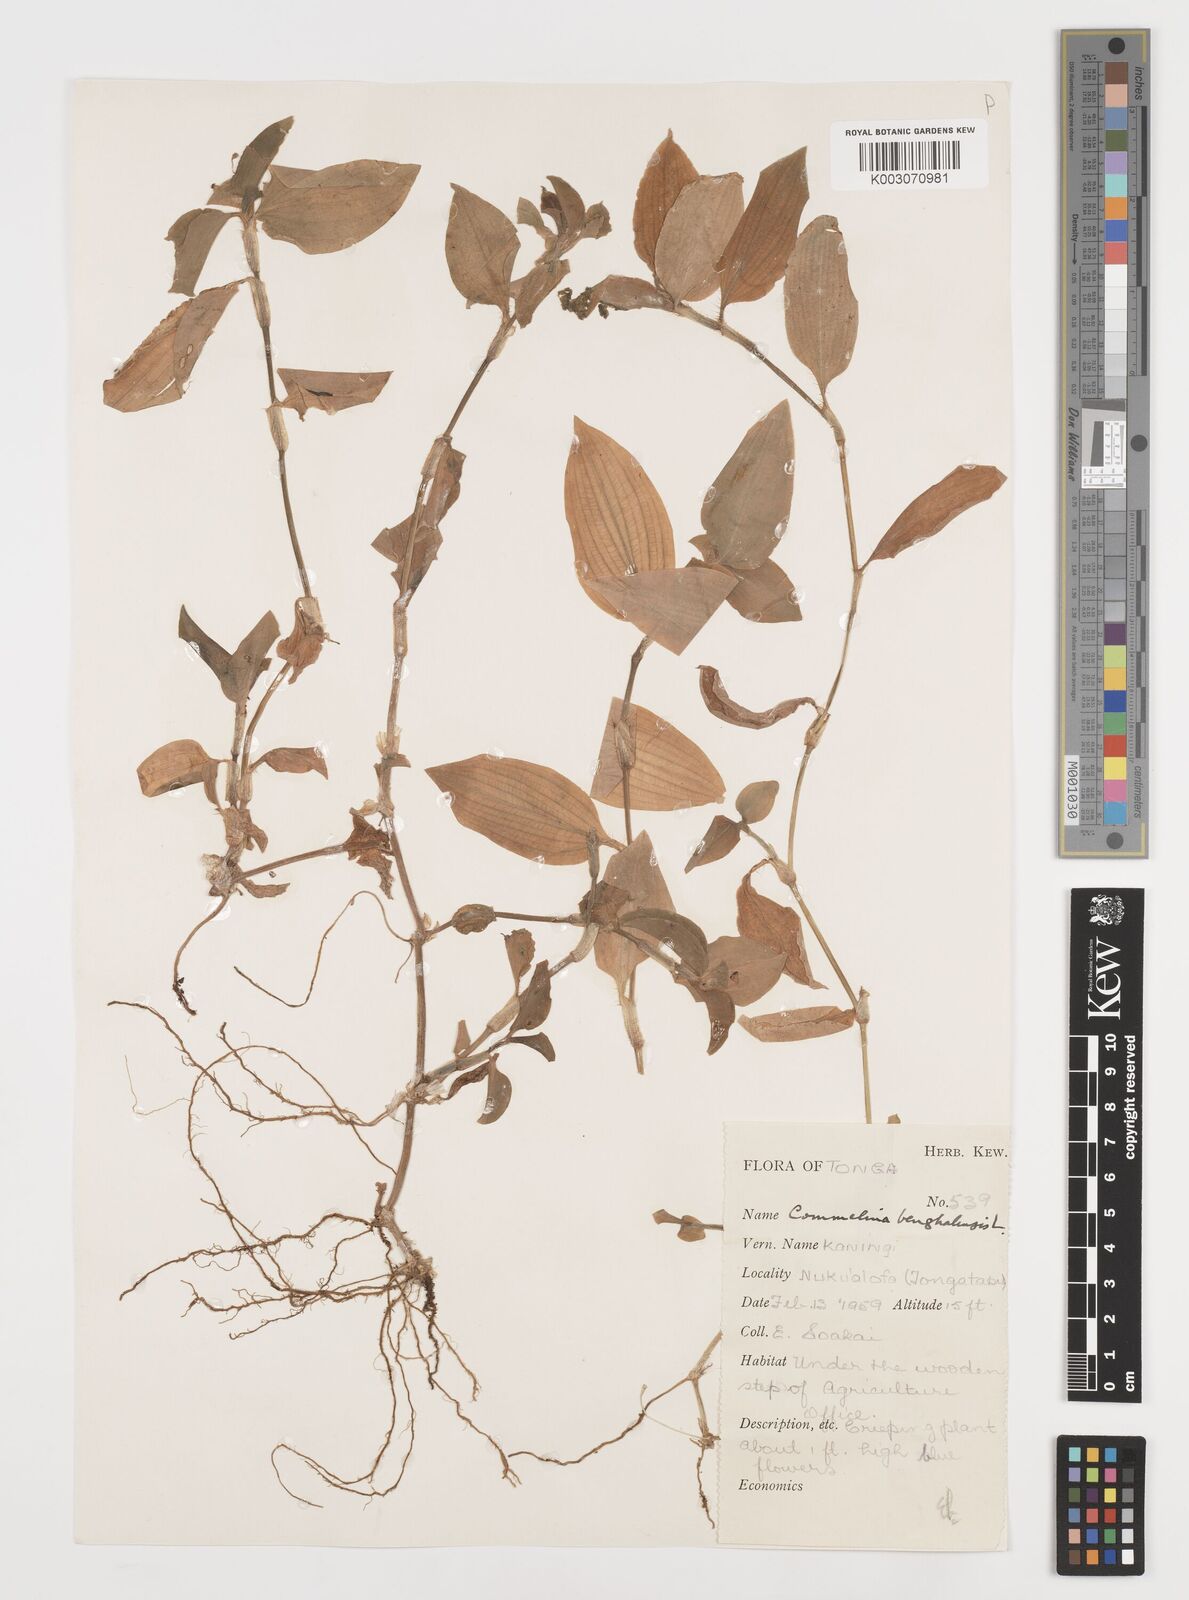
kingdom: Plantae
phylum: Tracheophyta
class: Liliopsida
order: Commelinales
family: Commelinaceae
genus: Commelina
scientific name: Commelina benghalensis
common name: Jio
